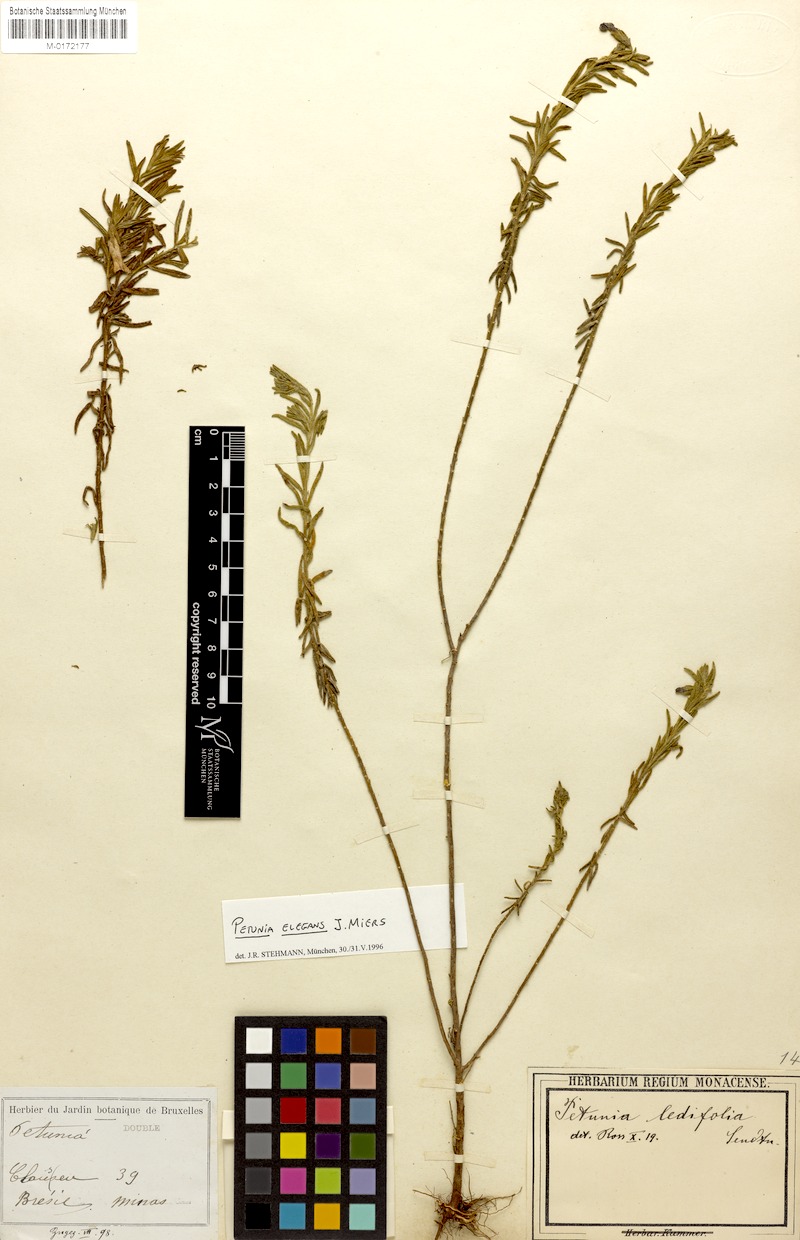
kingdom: Plantae
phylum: Tracheophyta
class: Magnoliopsida
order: Solanales
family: Solanaceae
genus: Calibrachoa
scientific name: Calibrachoa elegans
